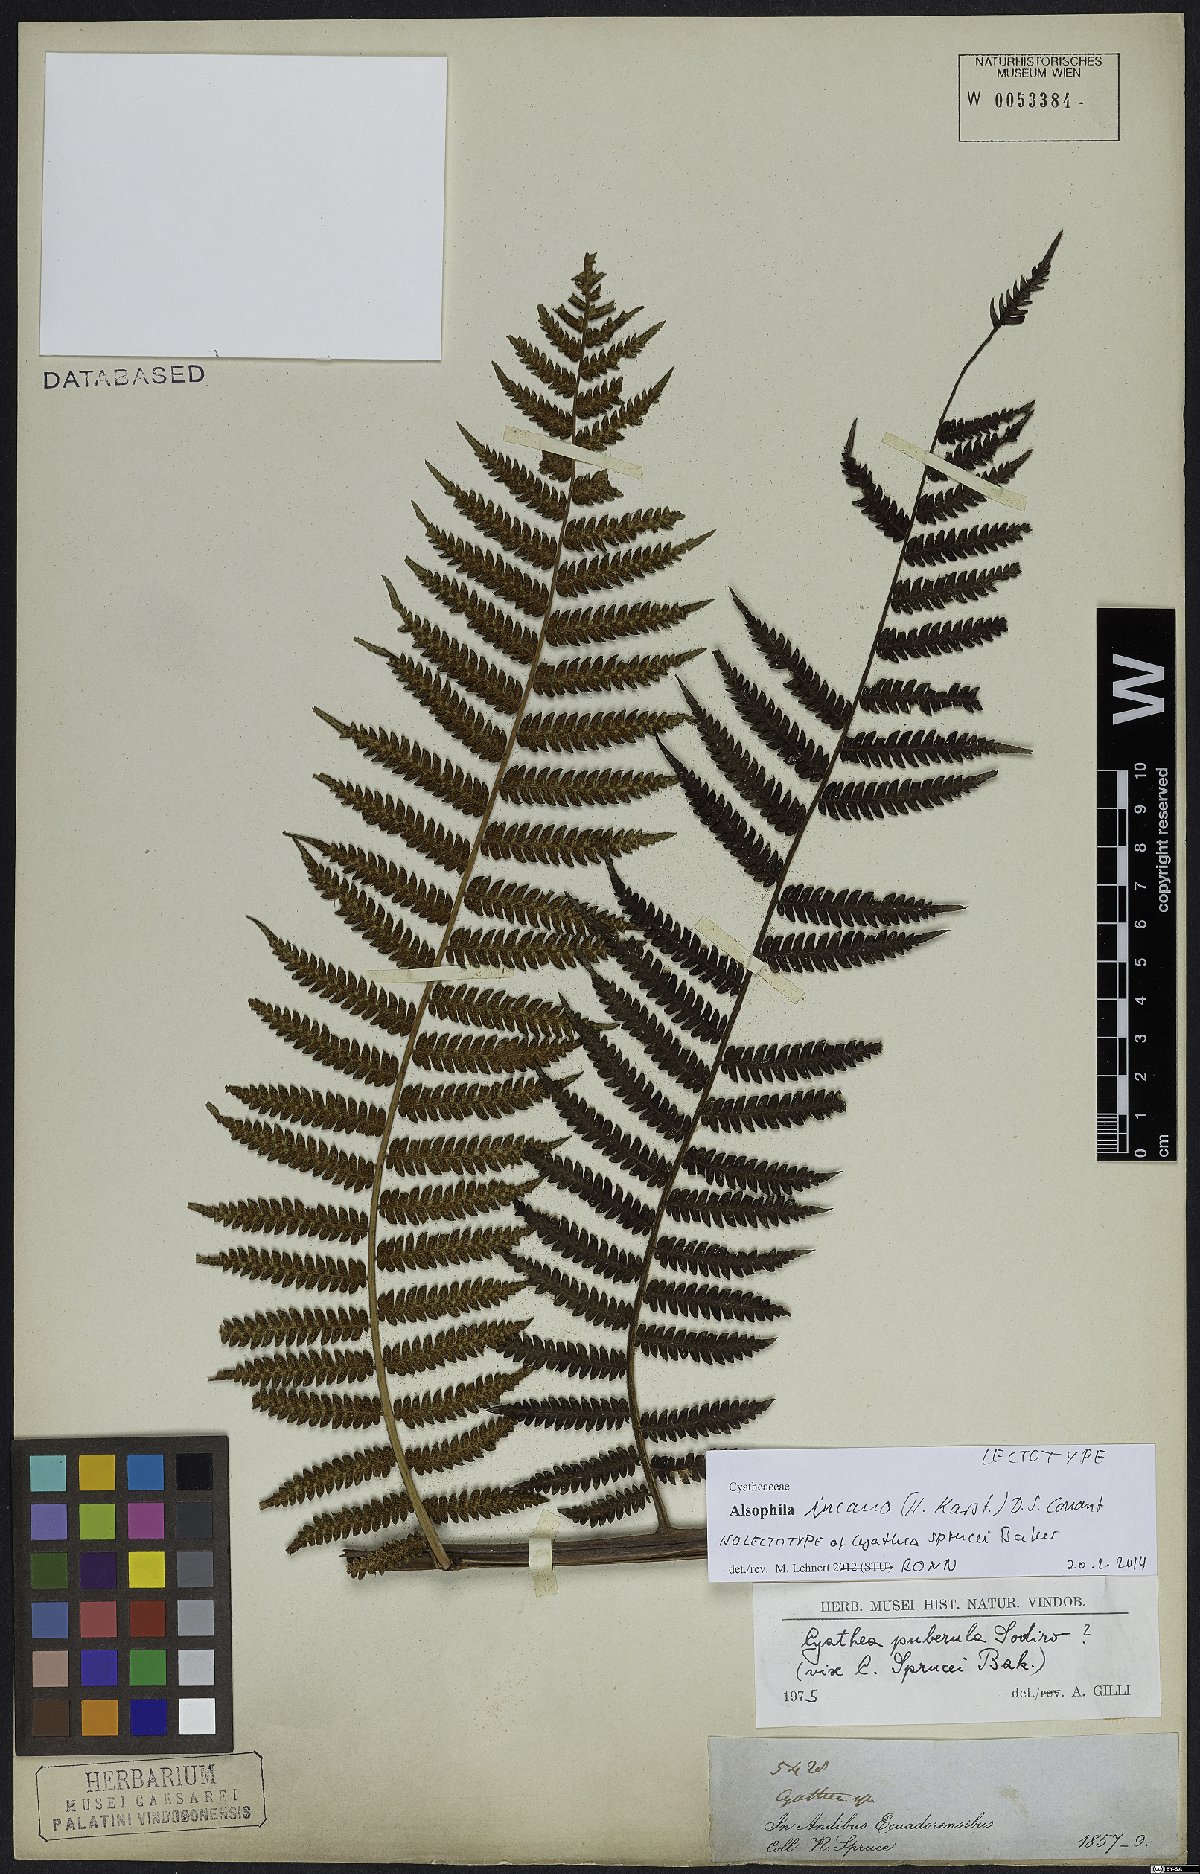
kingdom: Plantae
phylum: Tracheophyta
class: Polypodiopsida
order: Cyatheales
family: Cyatheaceae
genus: Alsophila
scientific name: Alsophila incana
